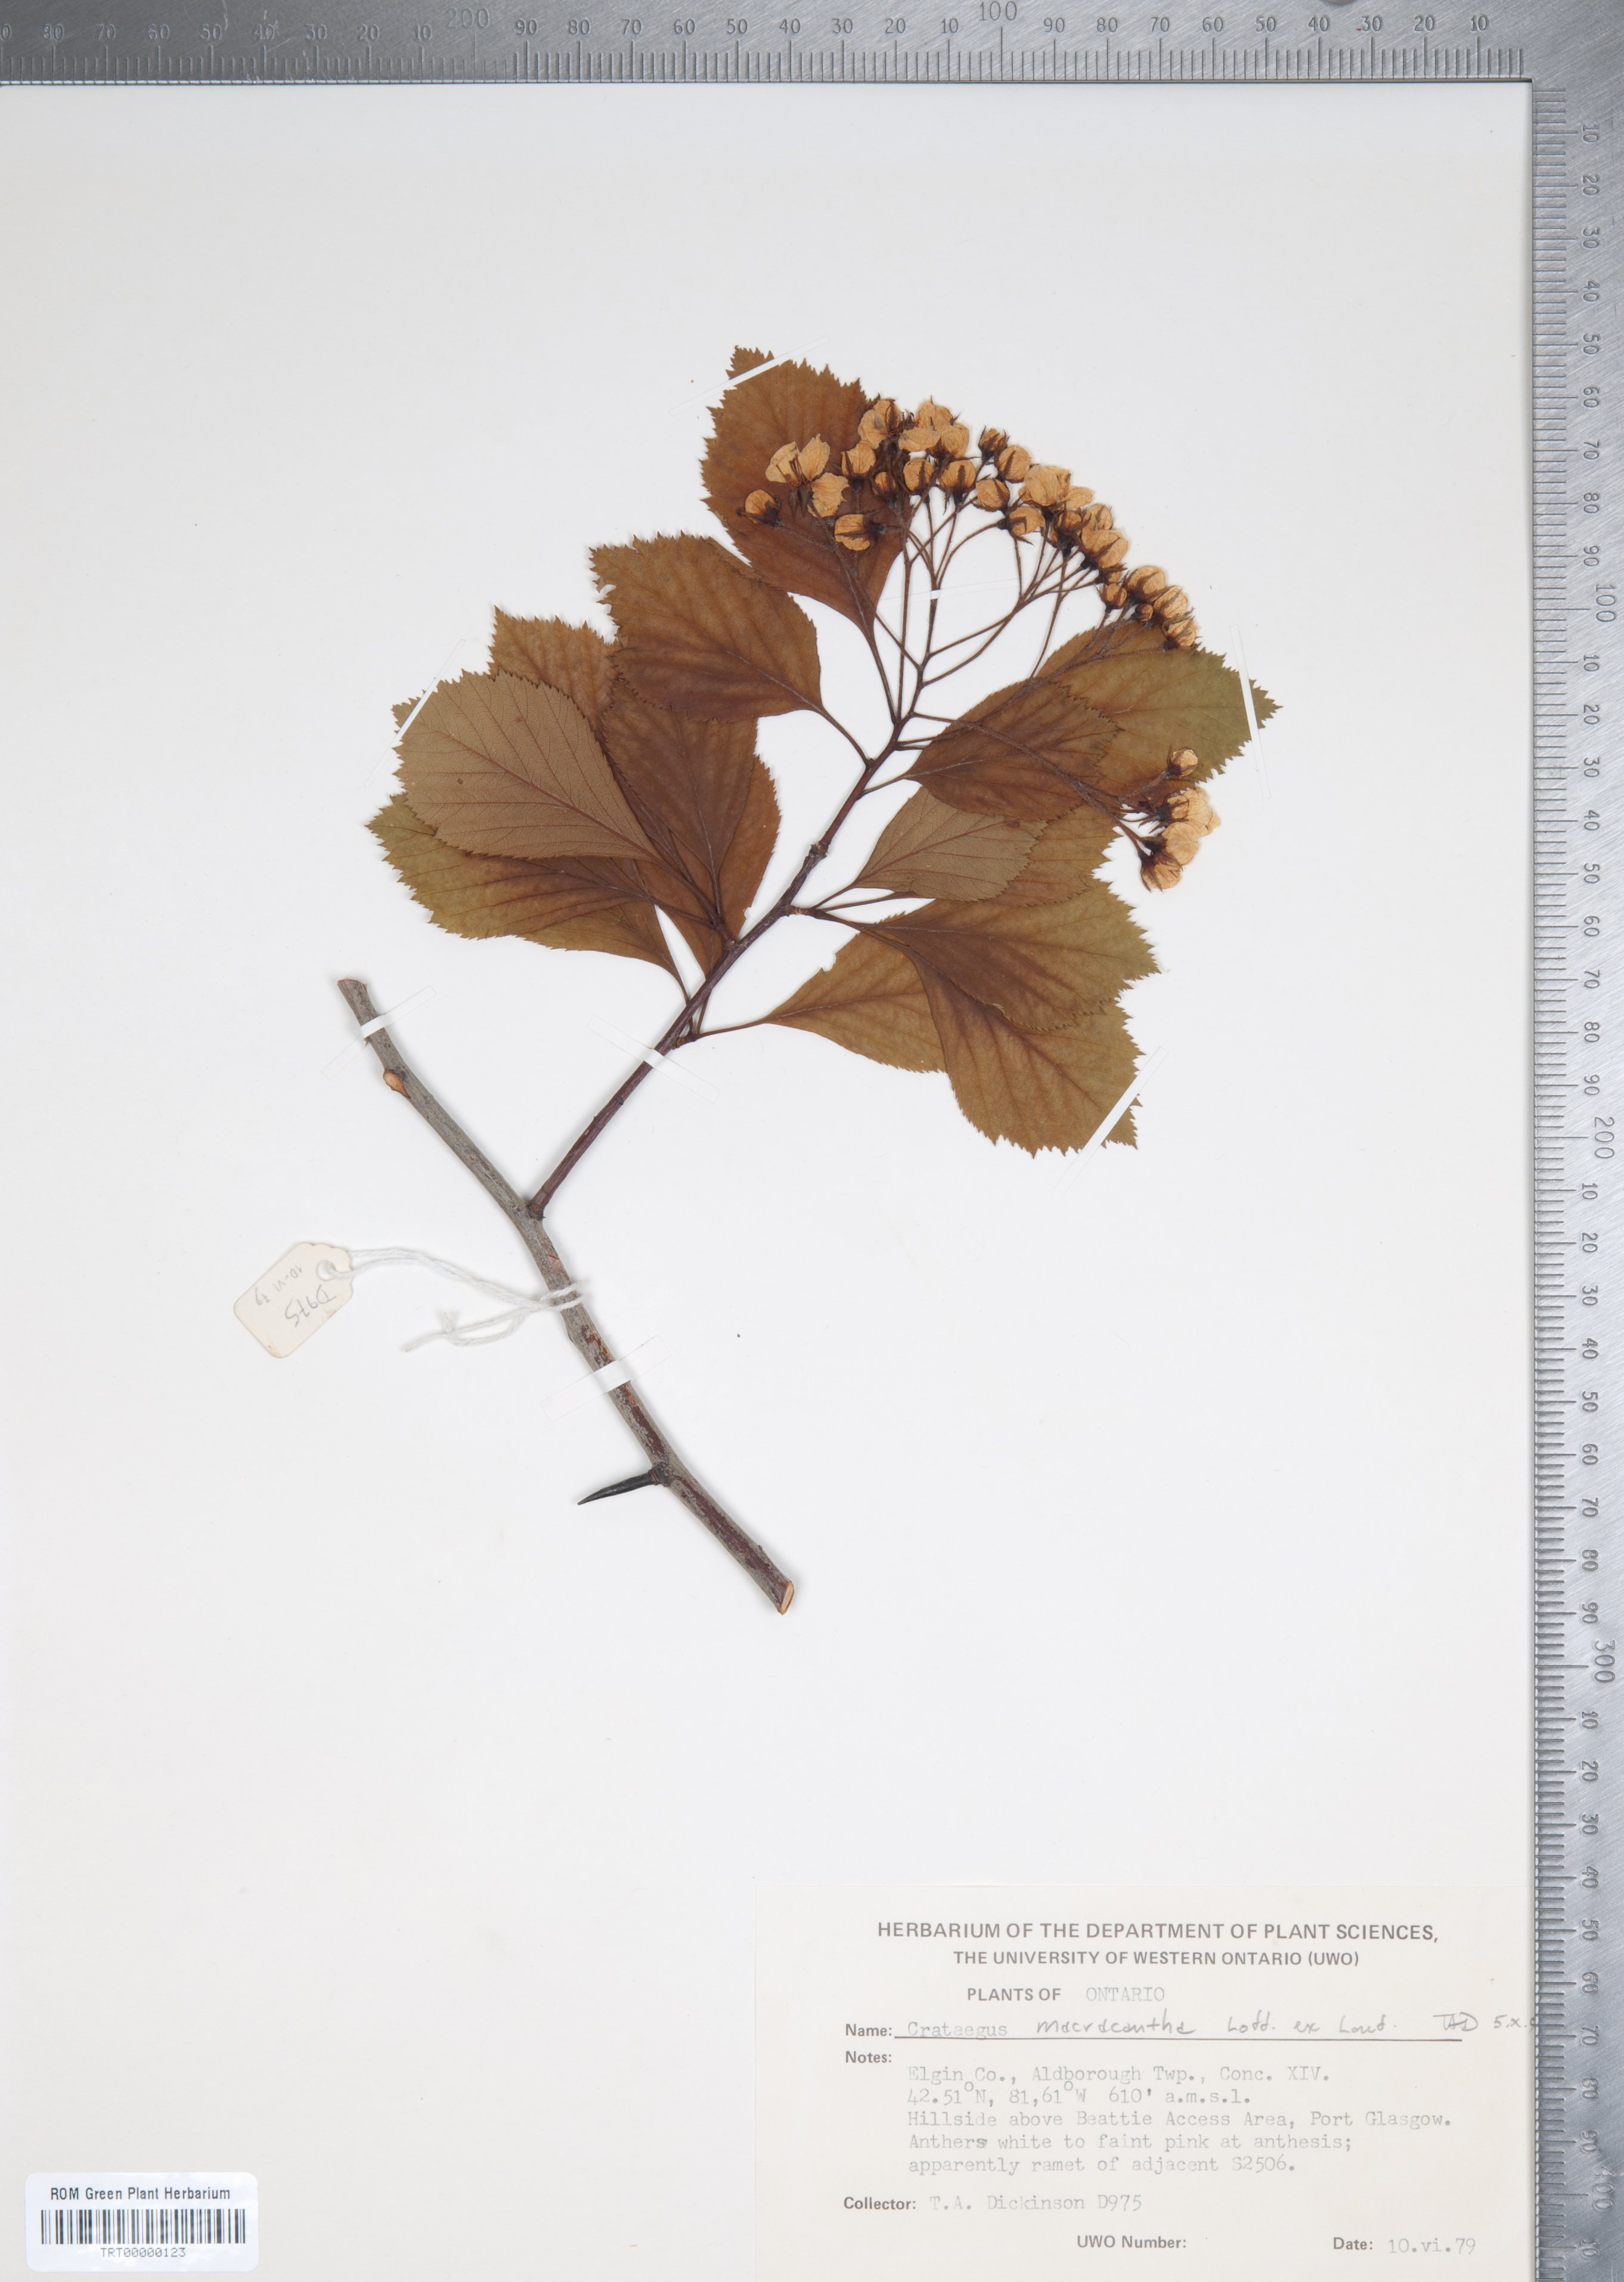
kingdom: Plantae
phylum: Tracheophyta
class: Magnoliopsida
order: Rosales
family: Rosaceae
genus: Crataegus
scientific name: Crataegus macracantha
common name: Large-thorn hawthorn
